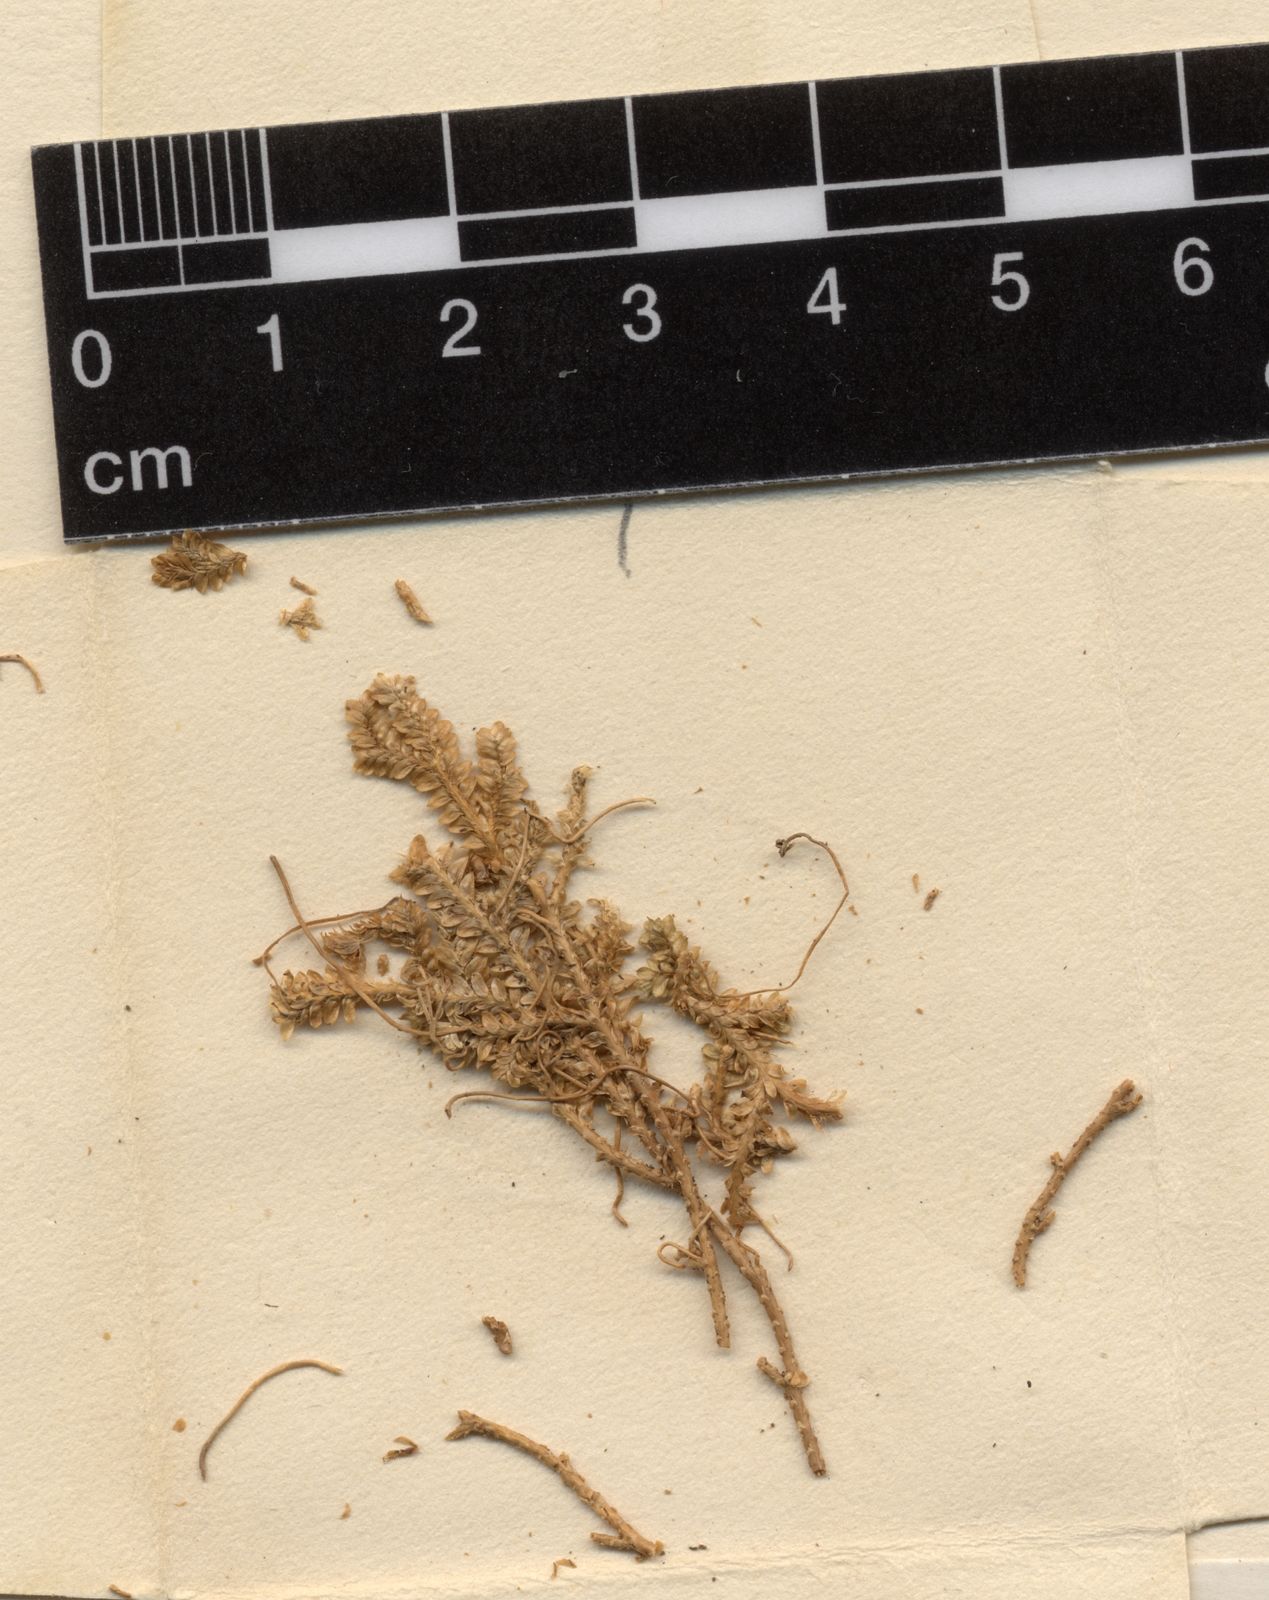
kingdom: Plantae
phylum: Tracheophyta
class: Lycopodiopsida
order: Selaginellales
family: Selaginellaceae
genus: Selaginella
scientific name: Selaginella viridula
